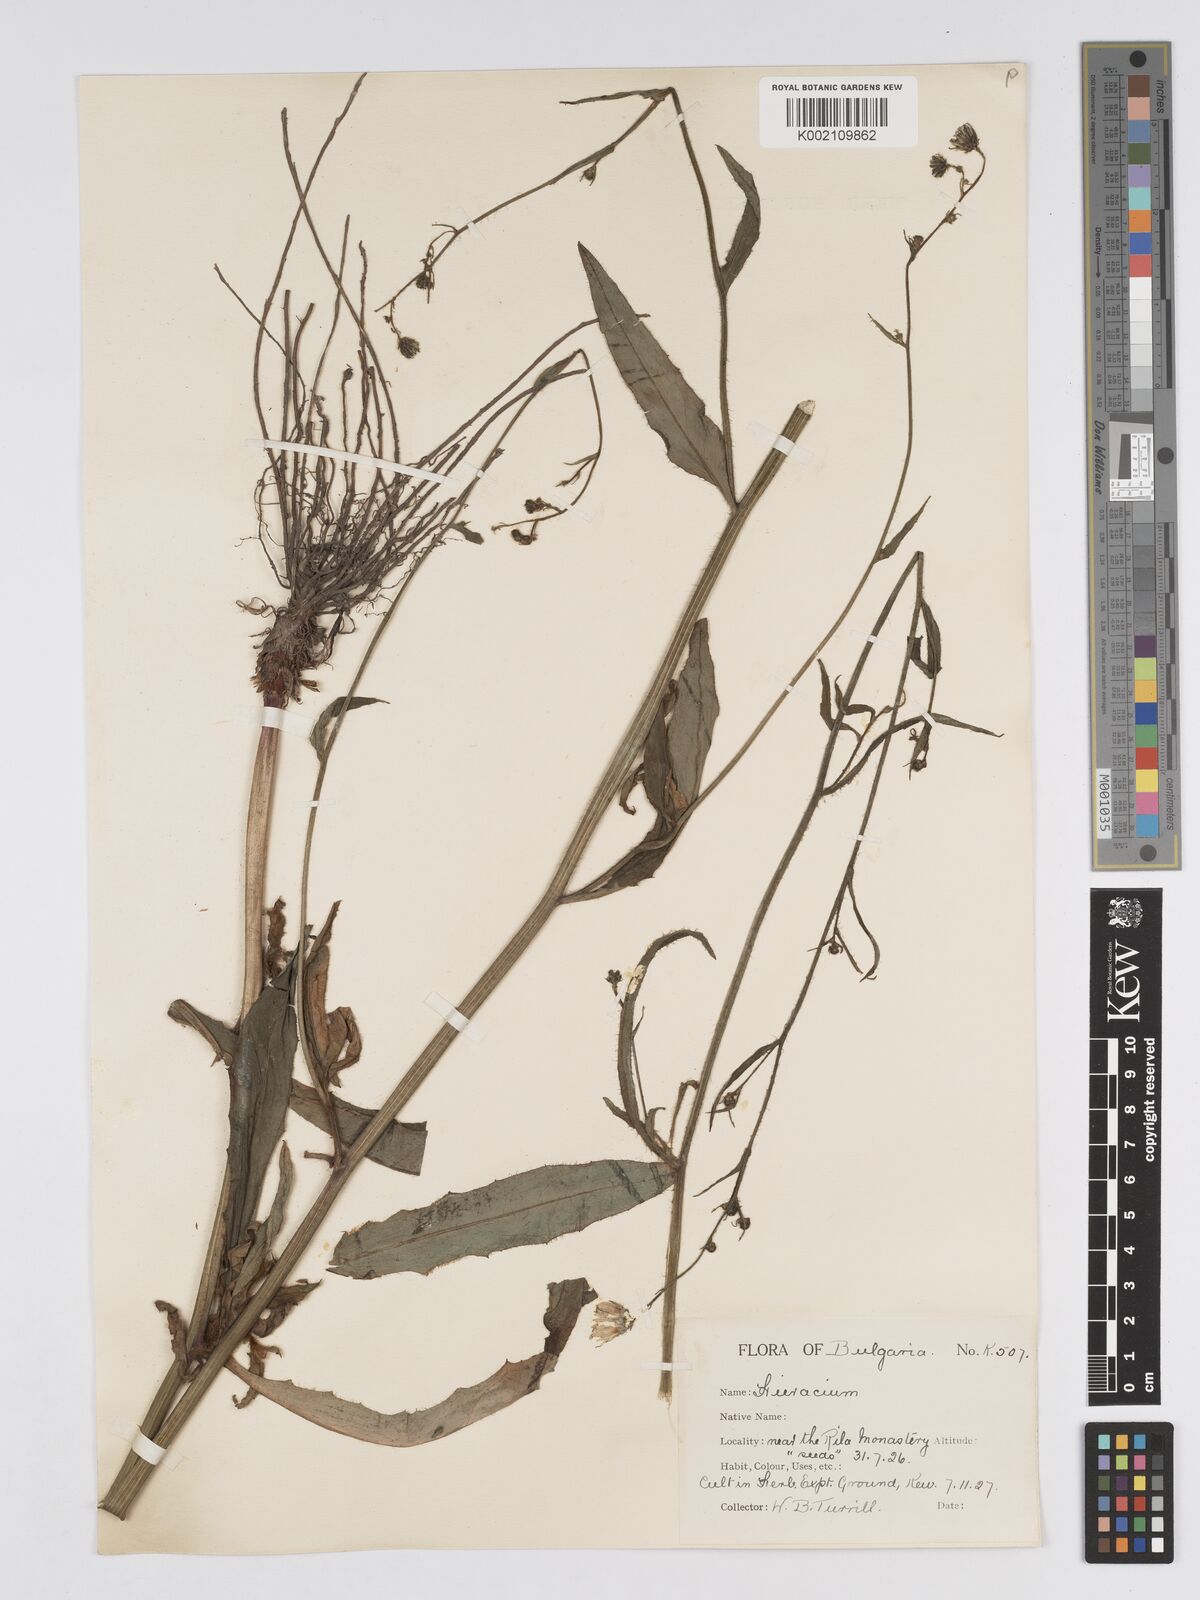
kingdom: Plantae
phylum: Tracheophyta
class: Magnoliopsida
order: Asterales
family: Asteraceae
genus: Hieracium
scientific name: Hieracium djimilense
